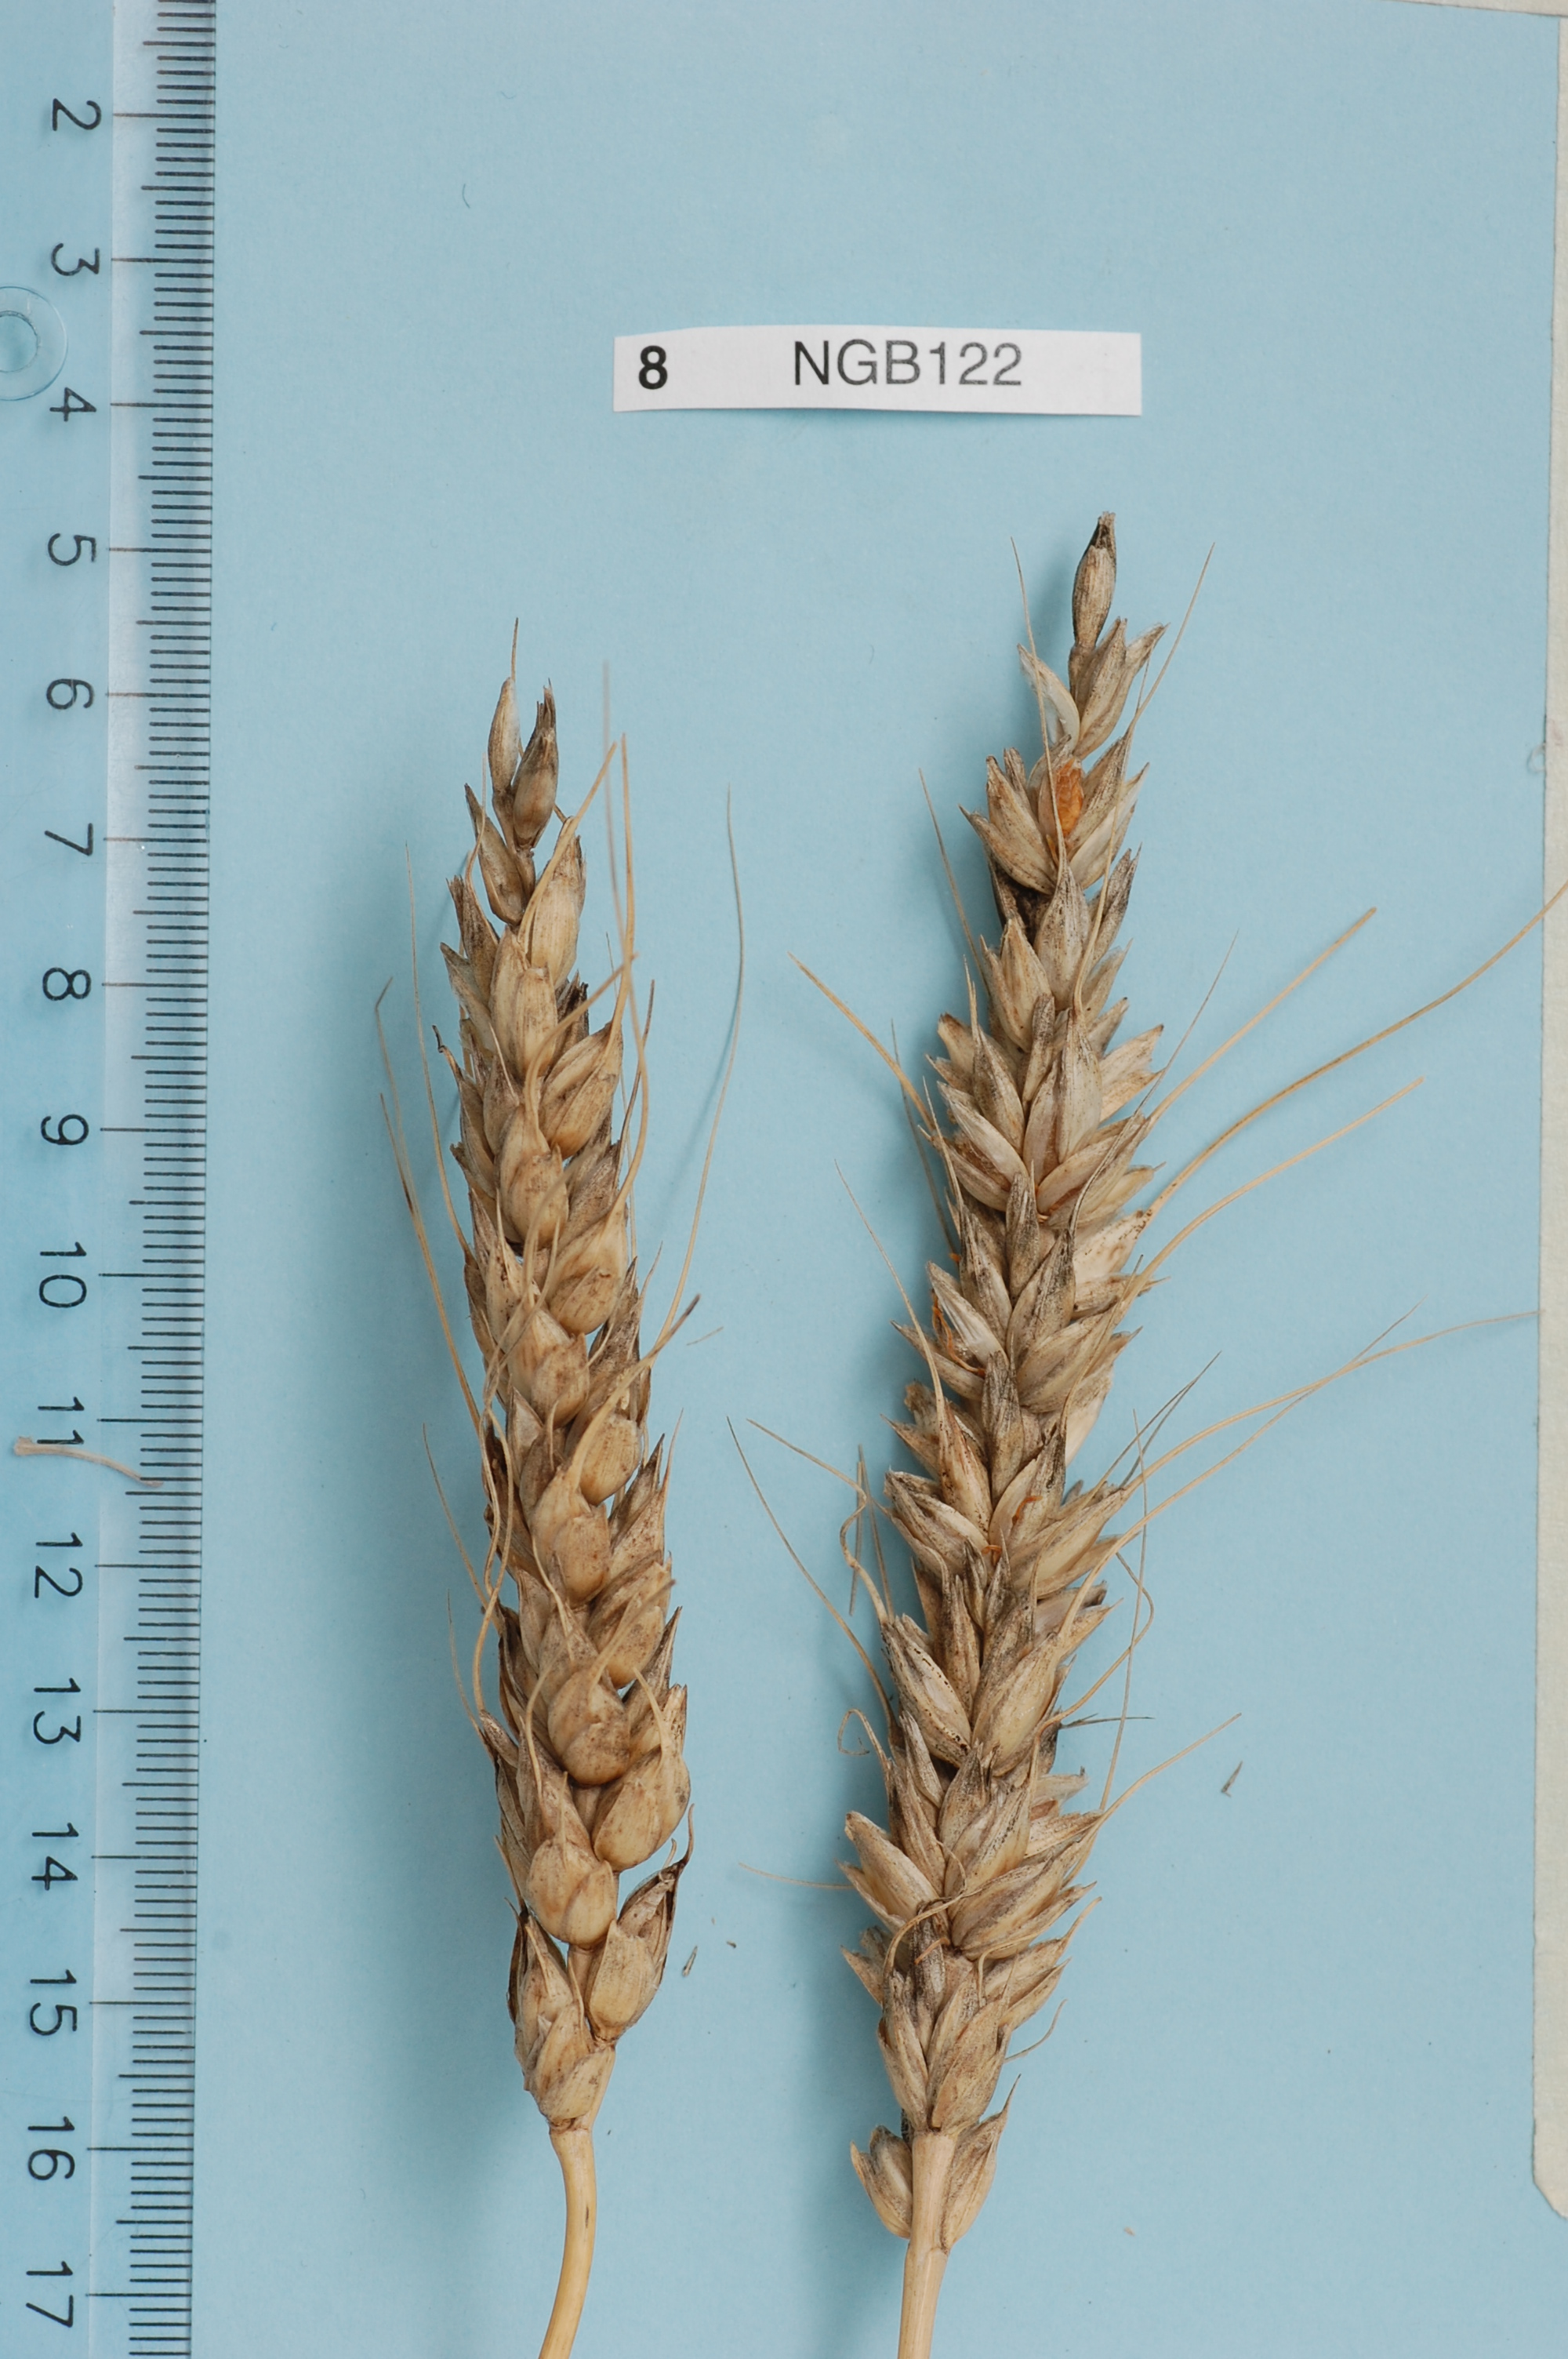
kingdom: Plantae
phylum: Tracheophyta
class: Liliopsida
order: Poales
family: Poaceae
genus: Triticum
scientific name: Triticum aestivum
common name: Common wheat
